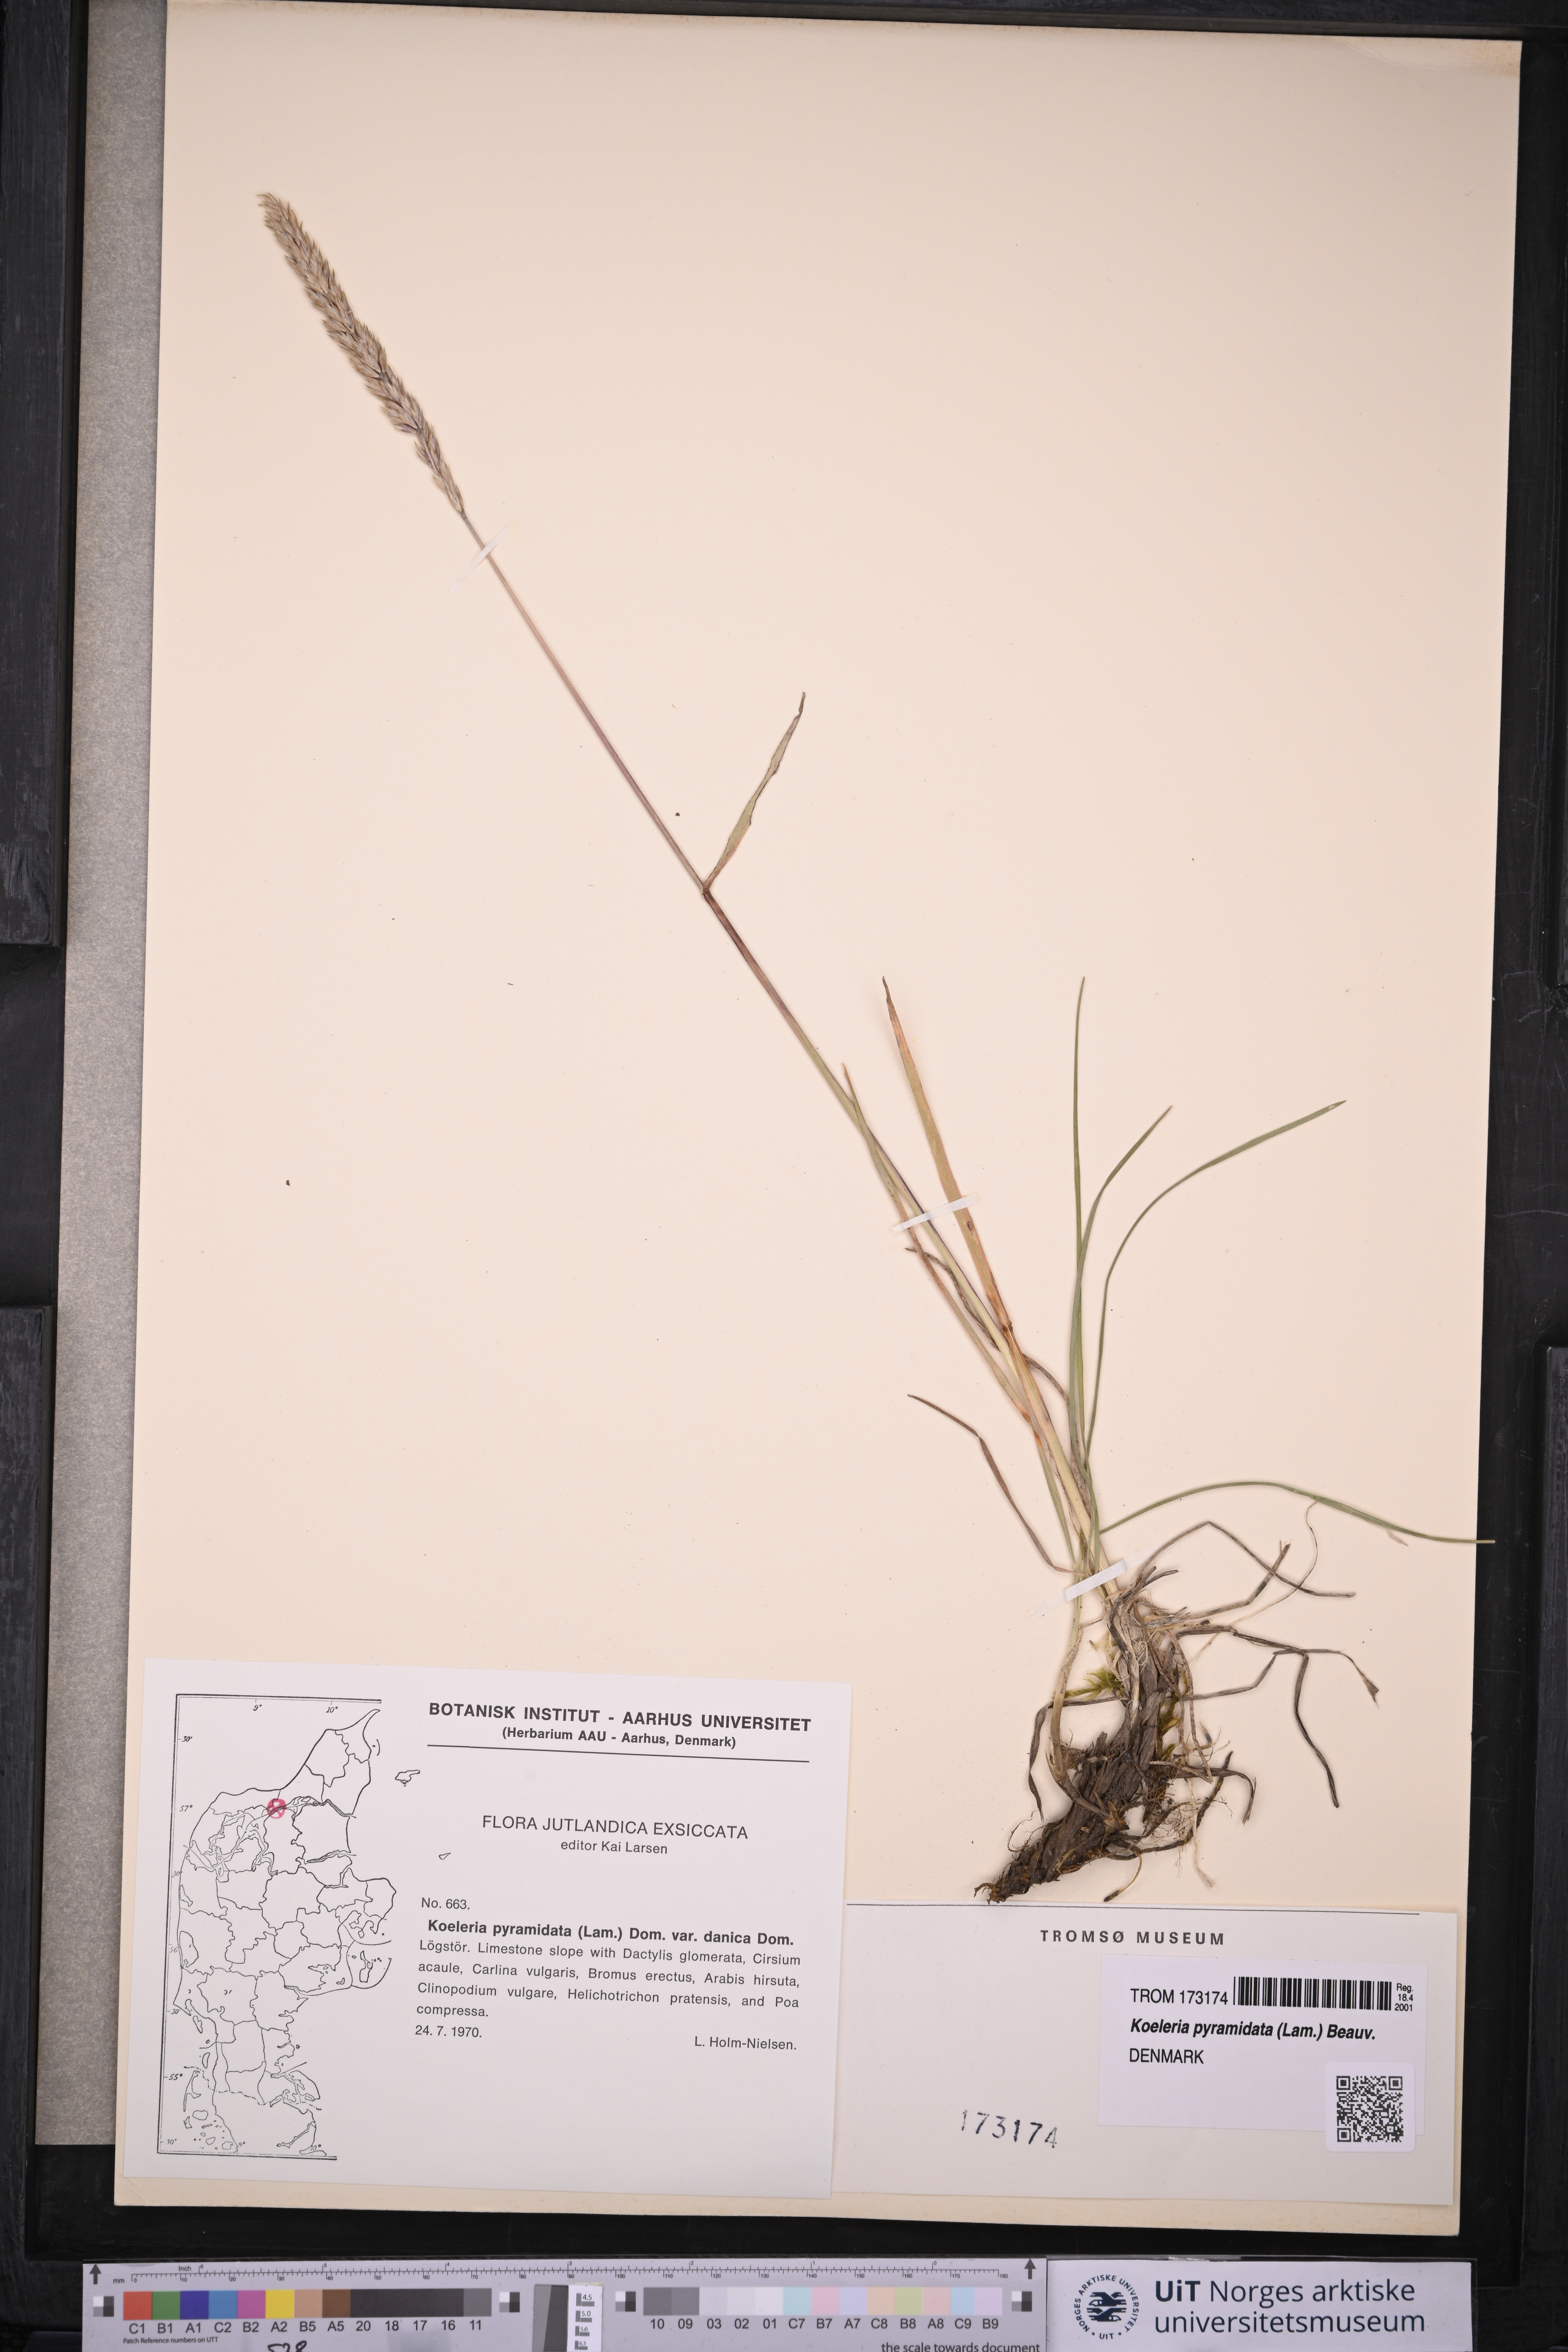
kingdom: Plantae
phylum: Tracheophyta
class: Liliopsida
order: Poales
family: Poaceae
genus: Koeleria
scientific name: Koeleria pyramidata
